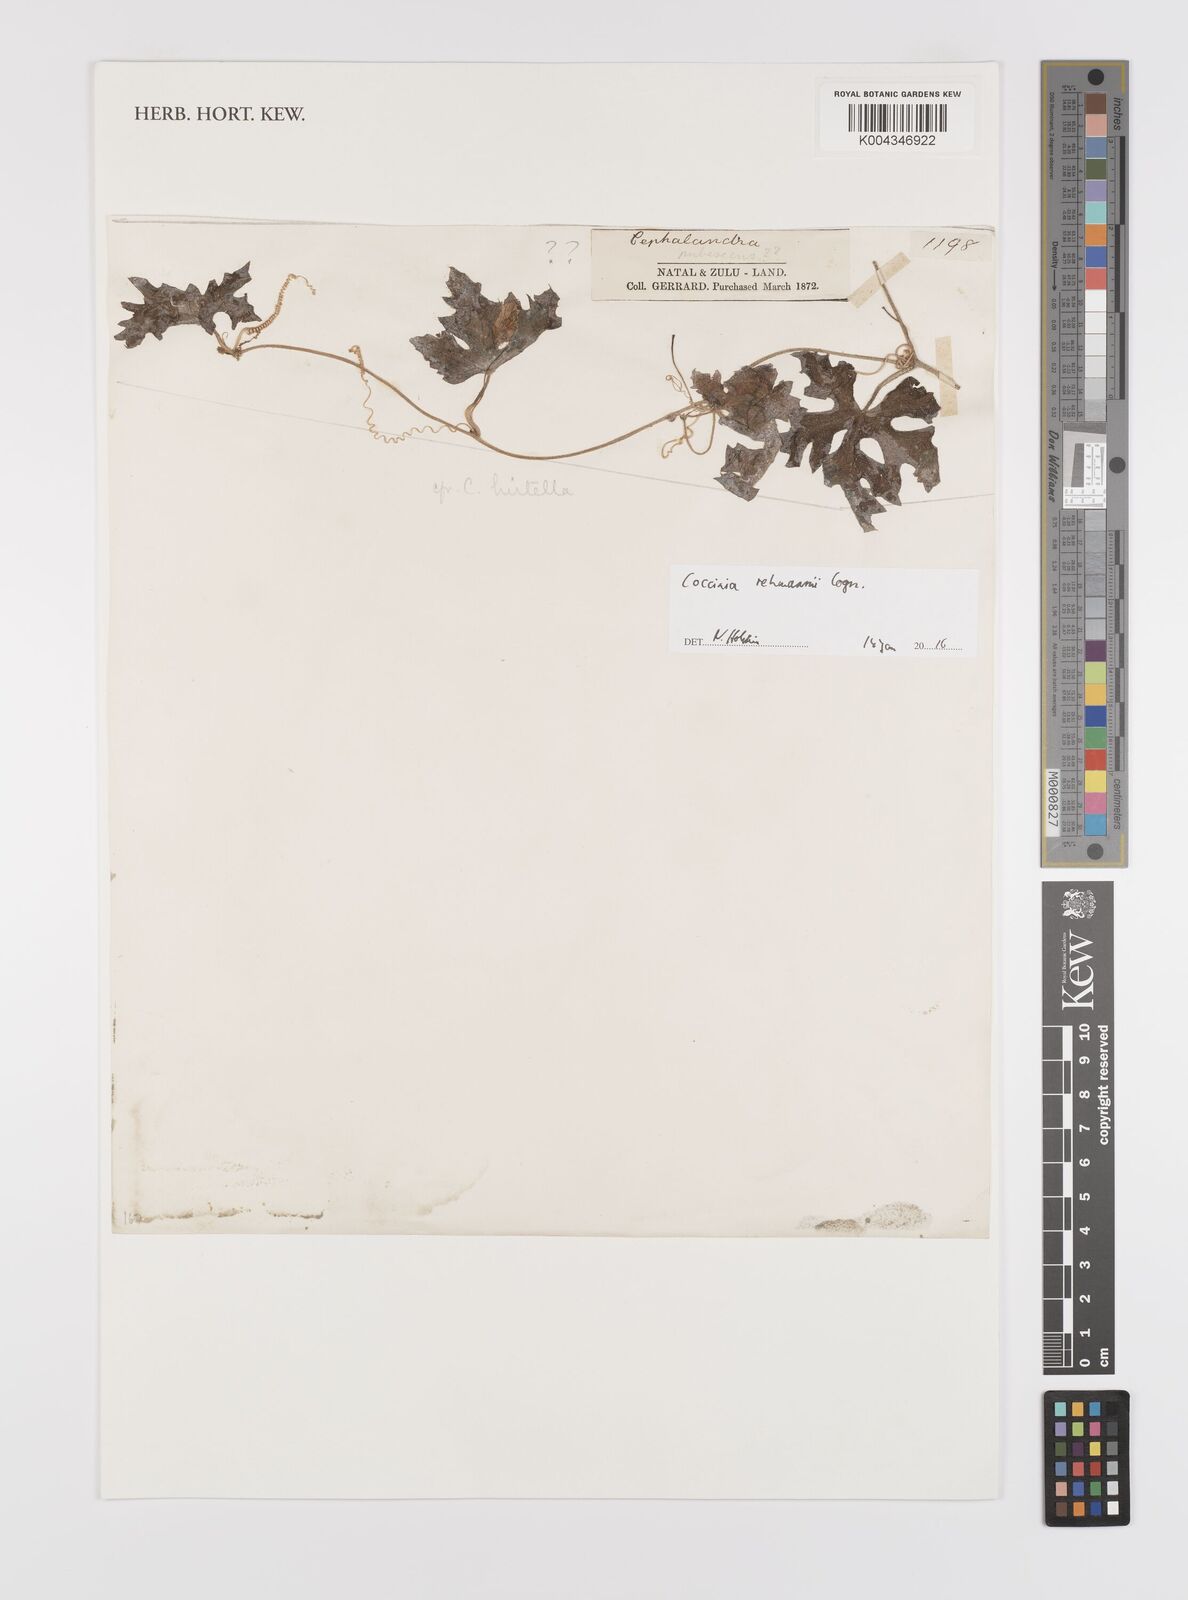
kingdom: Plantae
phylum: Tracheophyta
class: Magnoliopsida
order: Cucurbitales
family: Cucurbitaceae
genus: Coccinia
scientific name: Coccinia rehmannii
